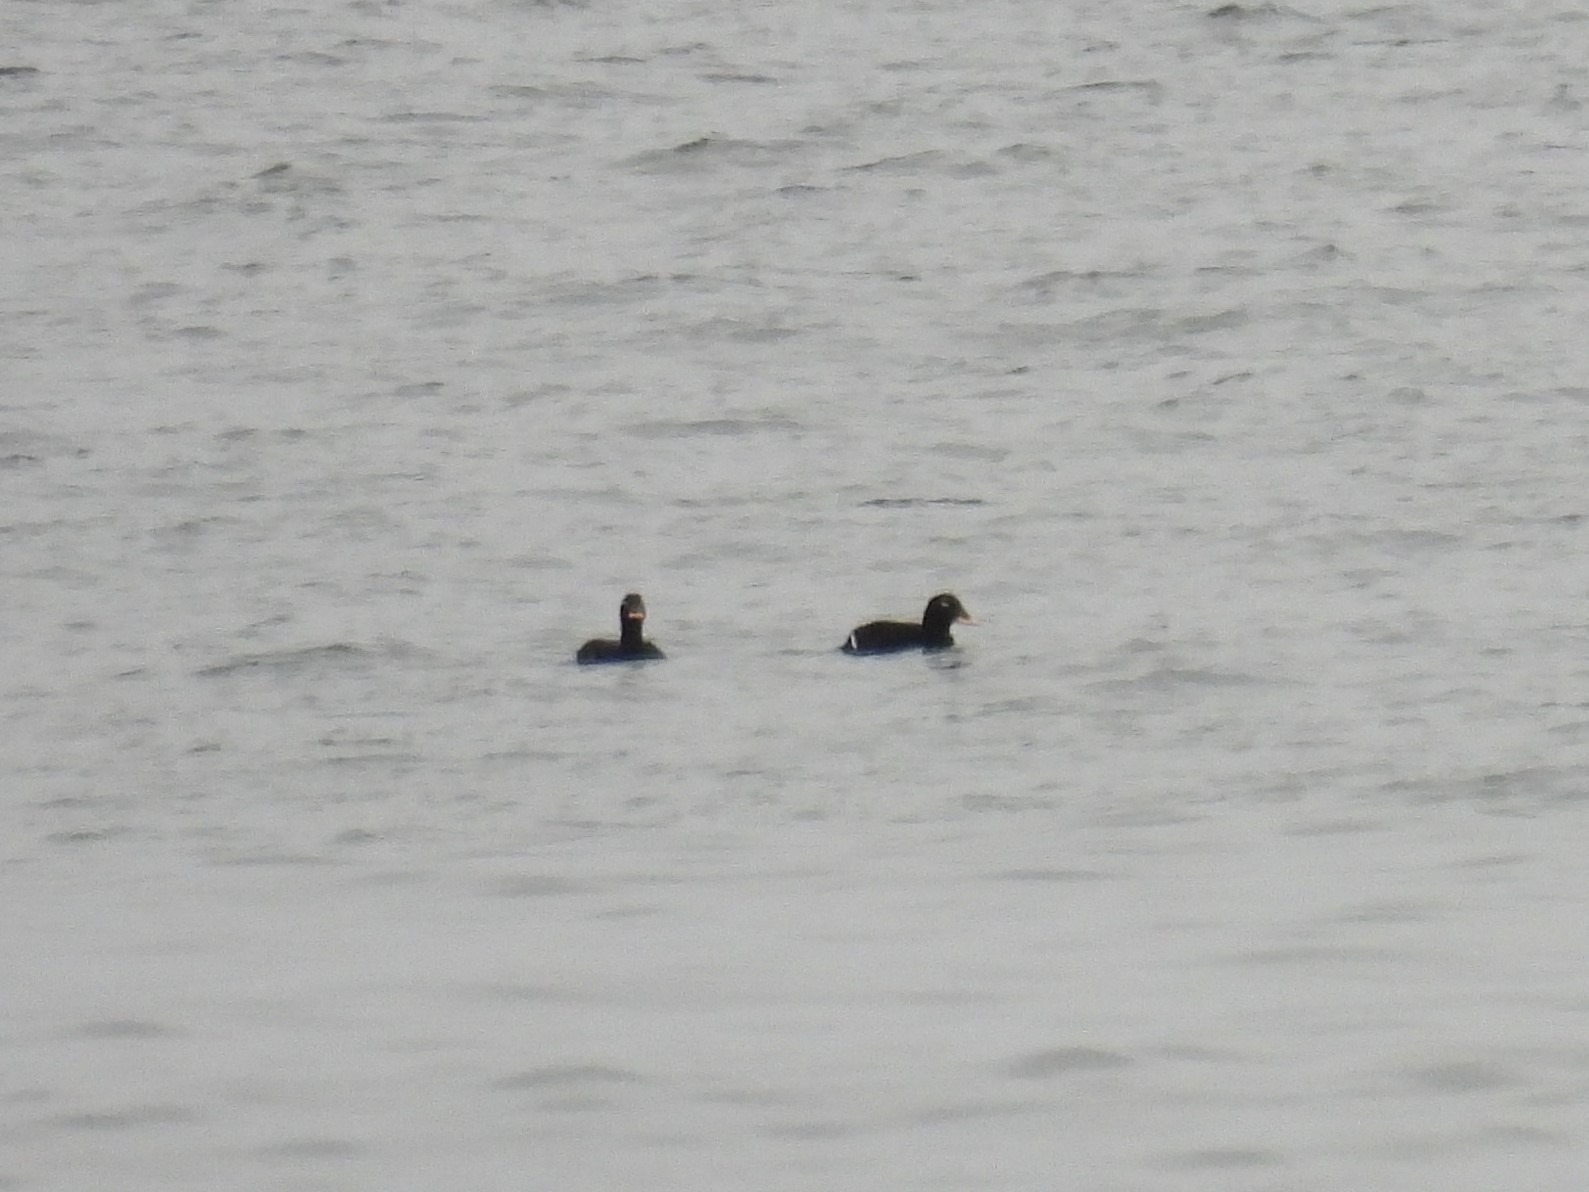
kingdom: Animalia
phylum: Chordata
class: Aves
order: Anseriformes
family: Anatidae
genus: Melanitta
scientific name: Melanitta fusca
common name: Fløjlsand
